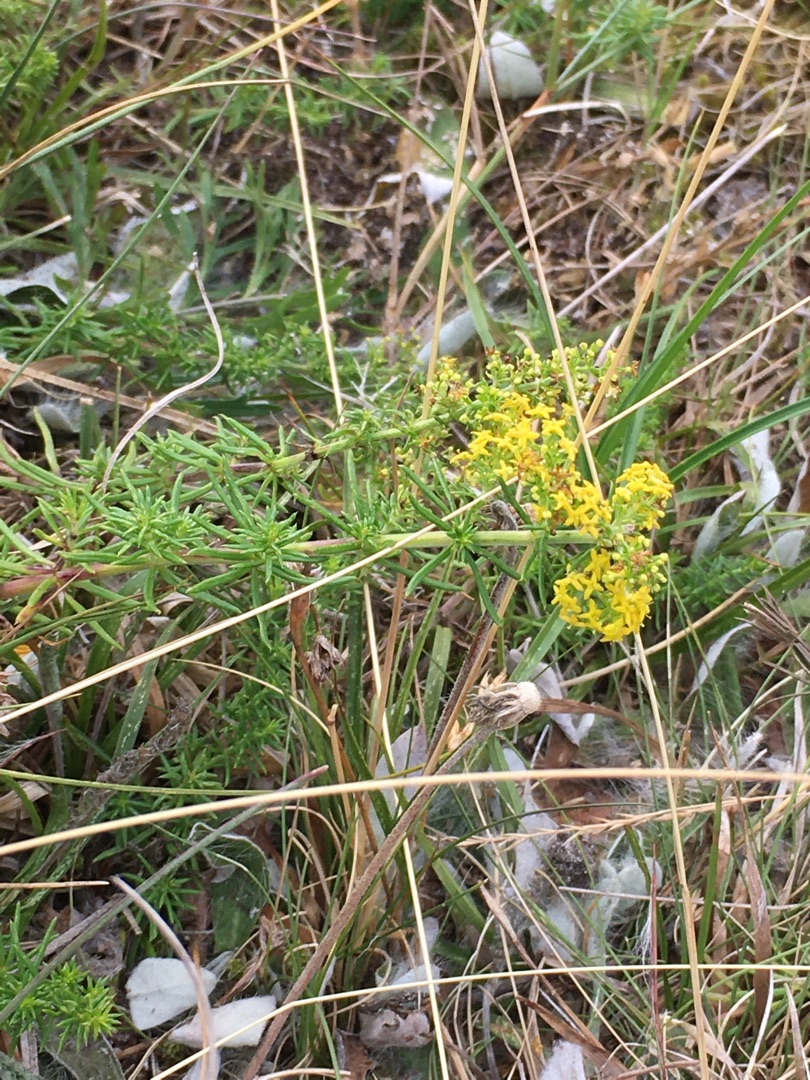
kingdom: Plantae
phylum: Tracheophyta
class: Magnoliopsida
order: Gentianales
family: Rubiaceae
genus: Galium
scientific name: Galium verum
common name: Gul snerre
